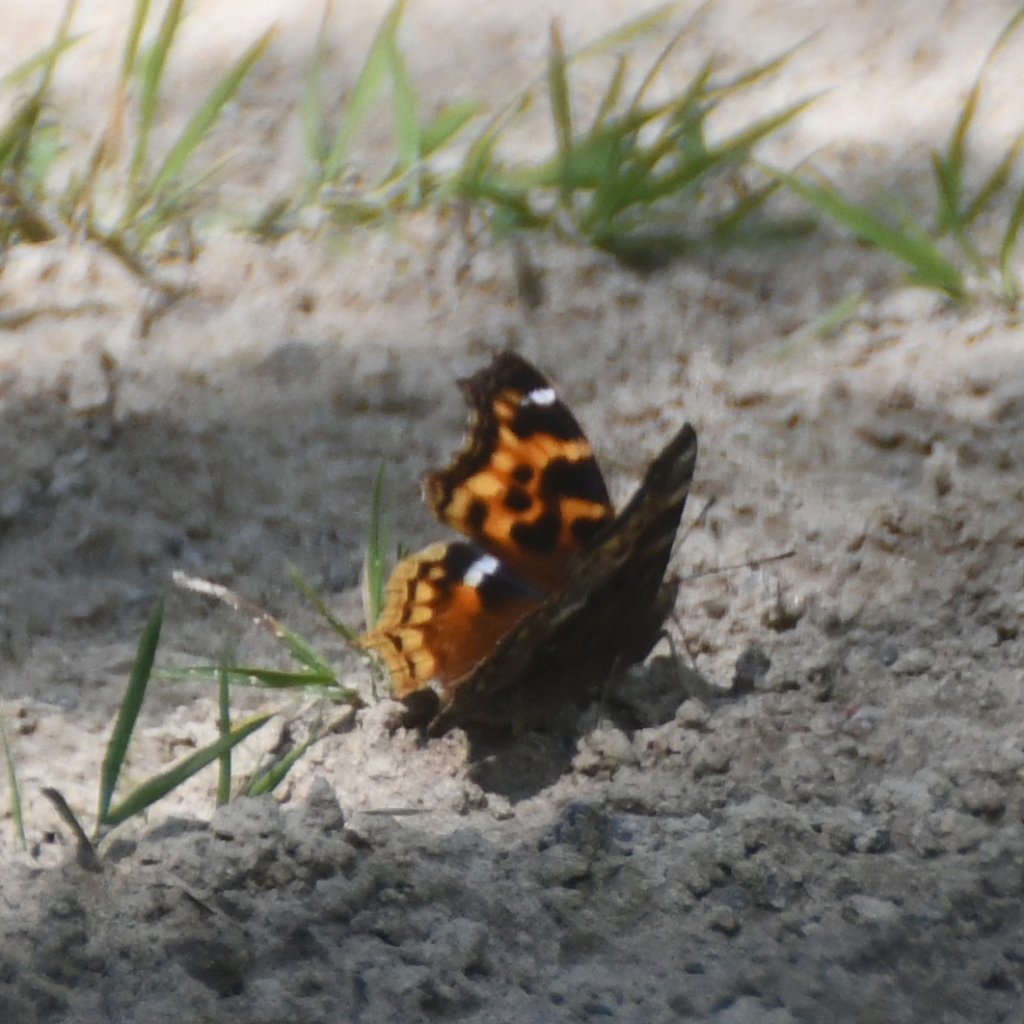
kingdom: Animalia
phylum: Arthropoda
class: Insecta
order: Lepidoptera
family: Nymphalidae
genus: Polygonia
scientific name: Polygonia vaualbum
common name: Compton Tortoiseshell
